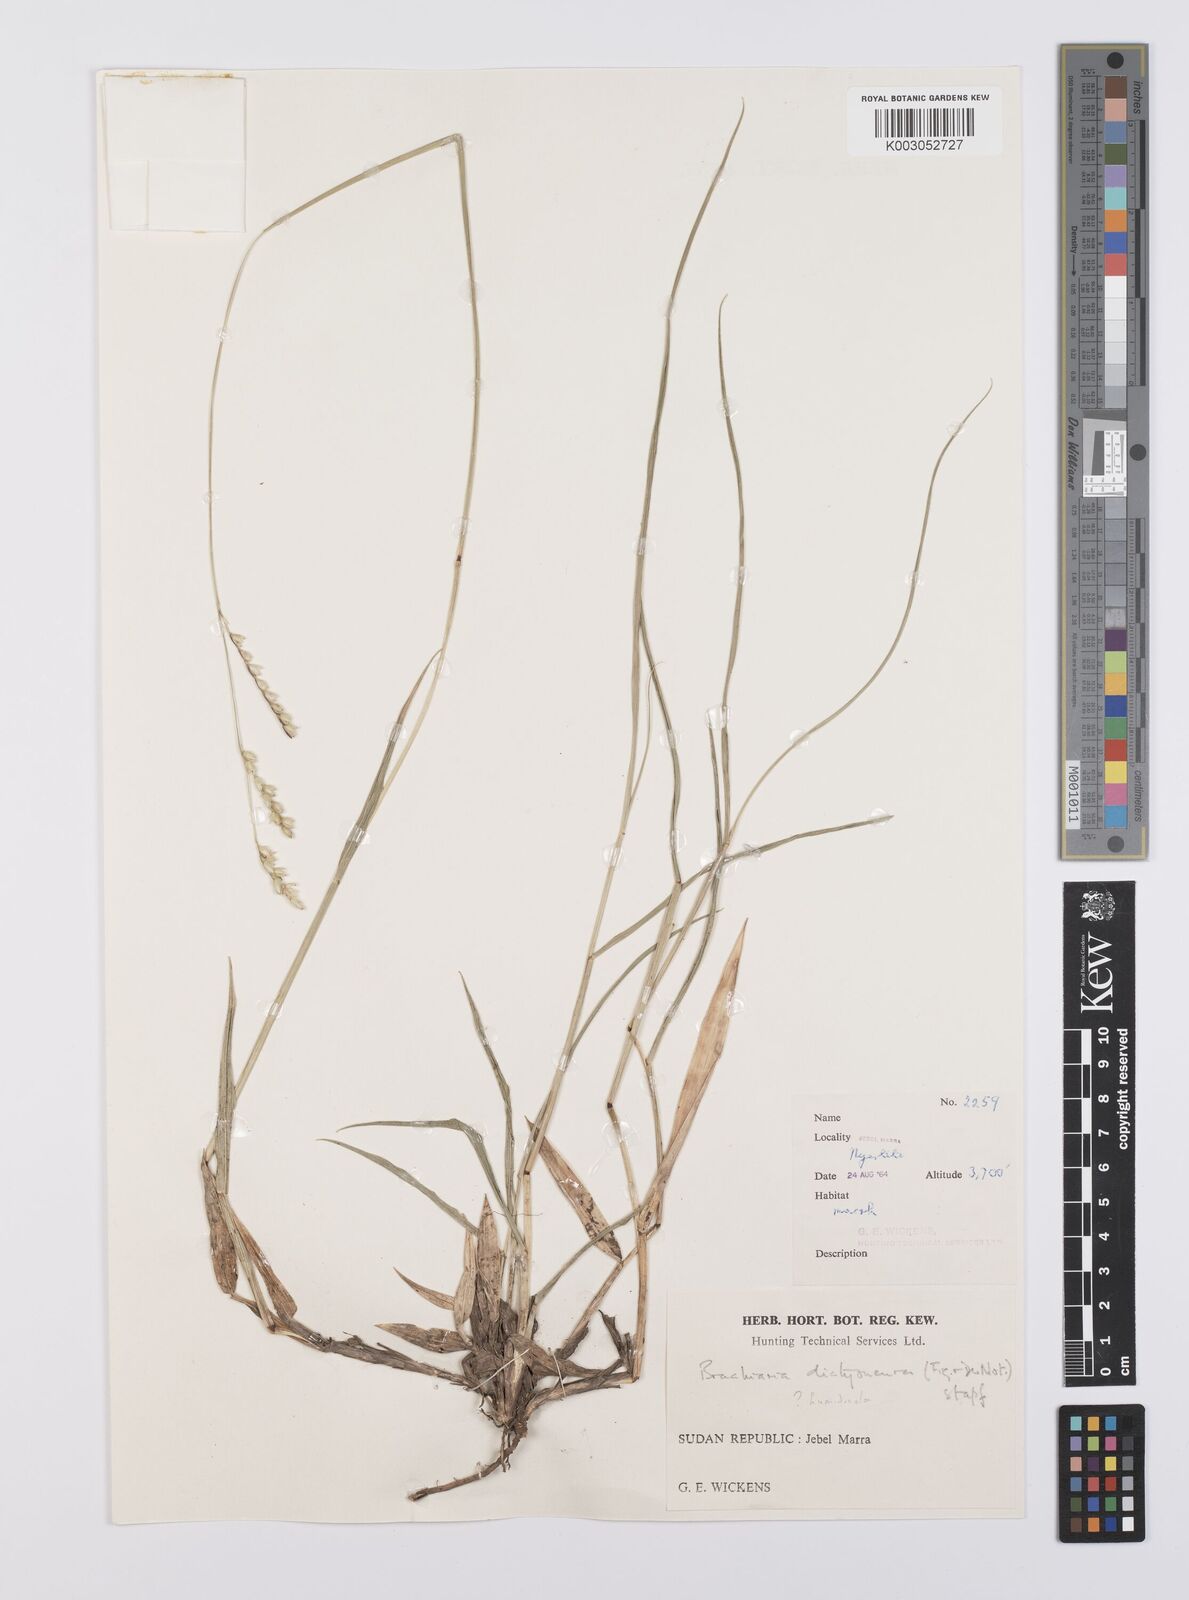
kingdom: Plantae
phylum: Tracheophyta
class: Liliopsida
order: Poales
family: Poaceae
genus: Urochloa
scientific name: Urochloa dictyoneura
